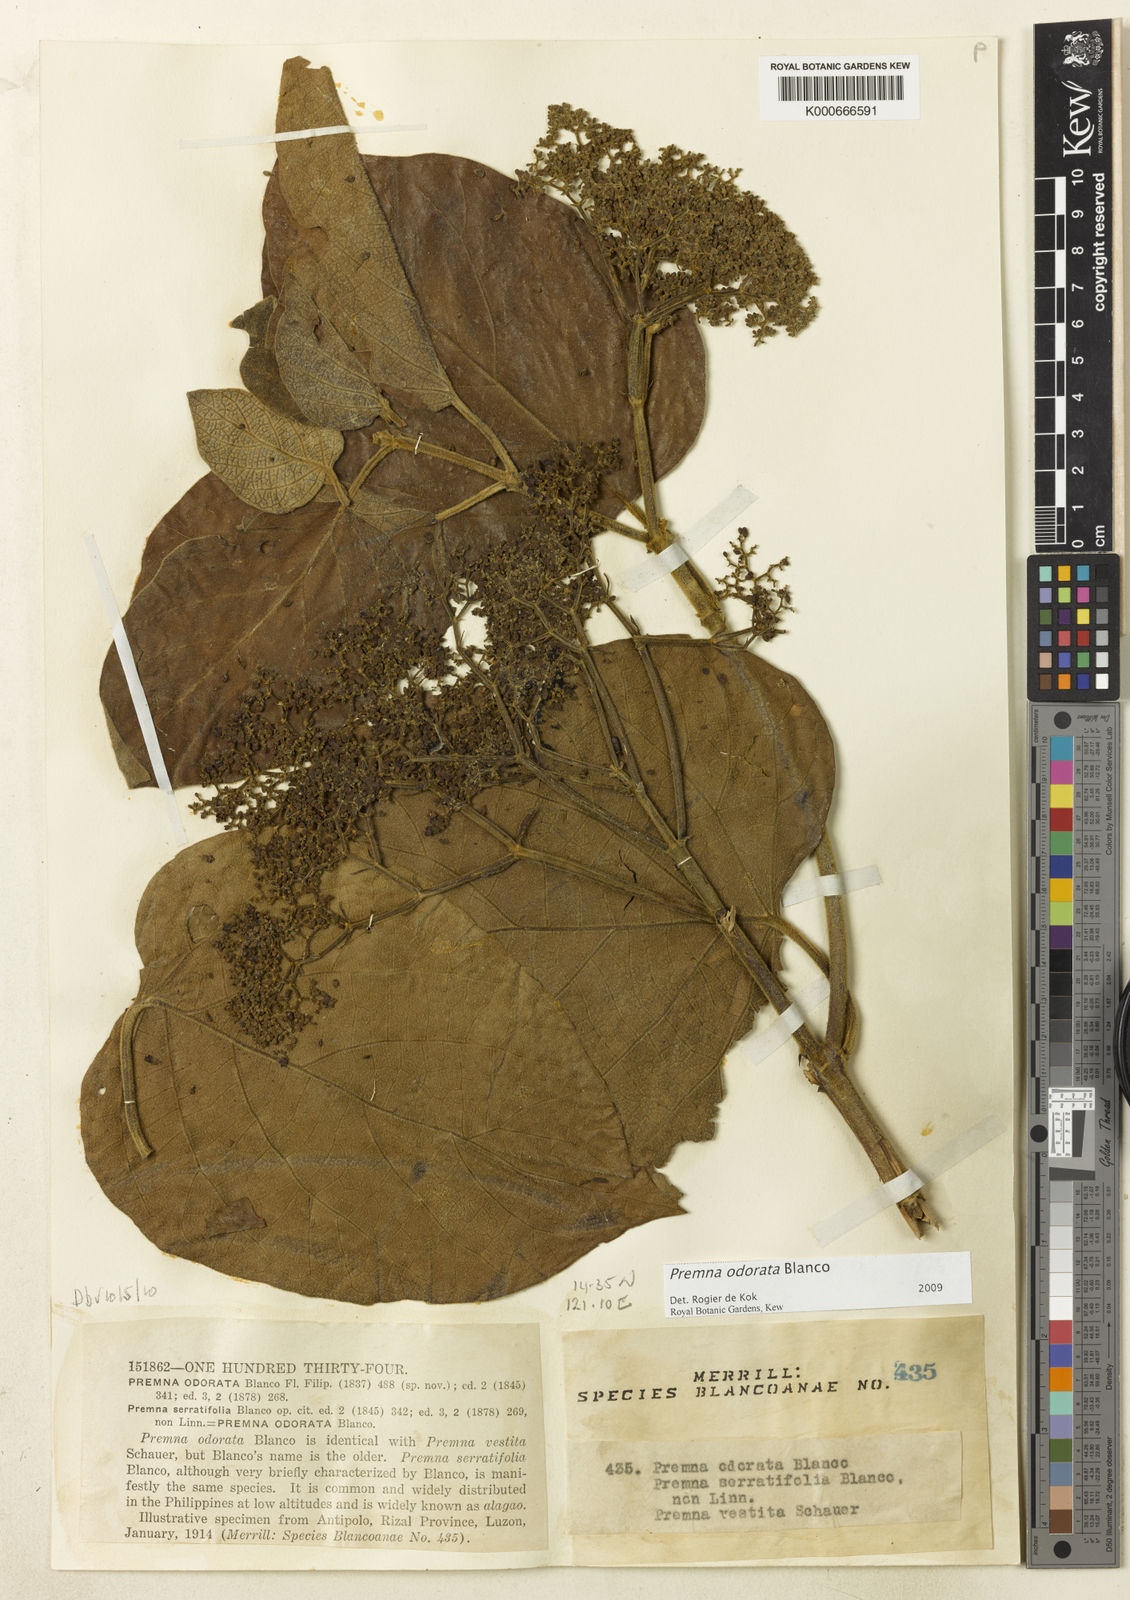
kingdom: Plantae
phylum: Tracheophyta
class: Magnoliopsida
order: Lamiales
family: Lamiaceae
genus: Premna
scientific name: Premna odorata
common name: Fragrant premna
